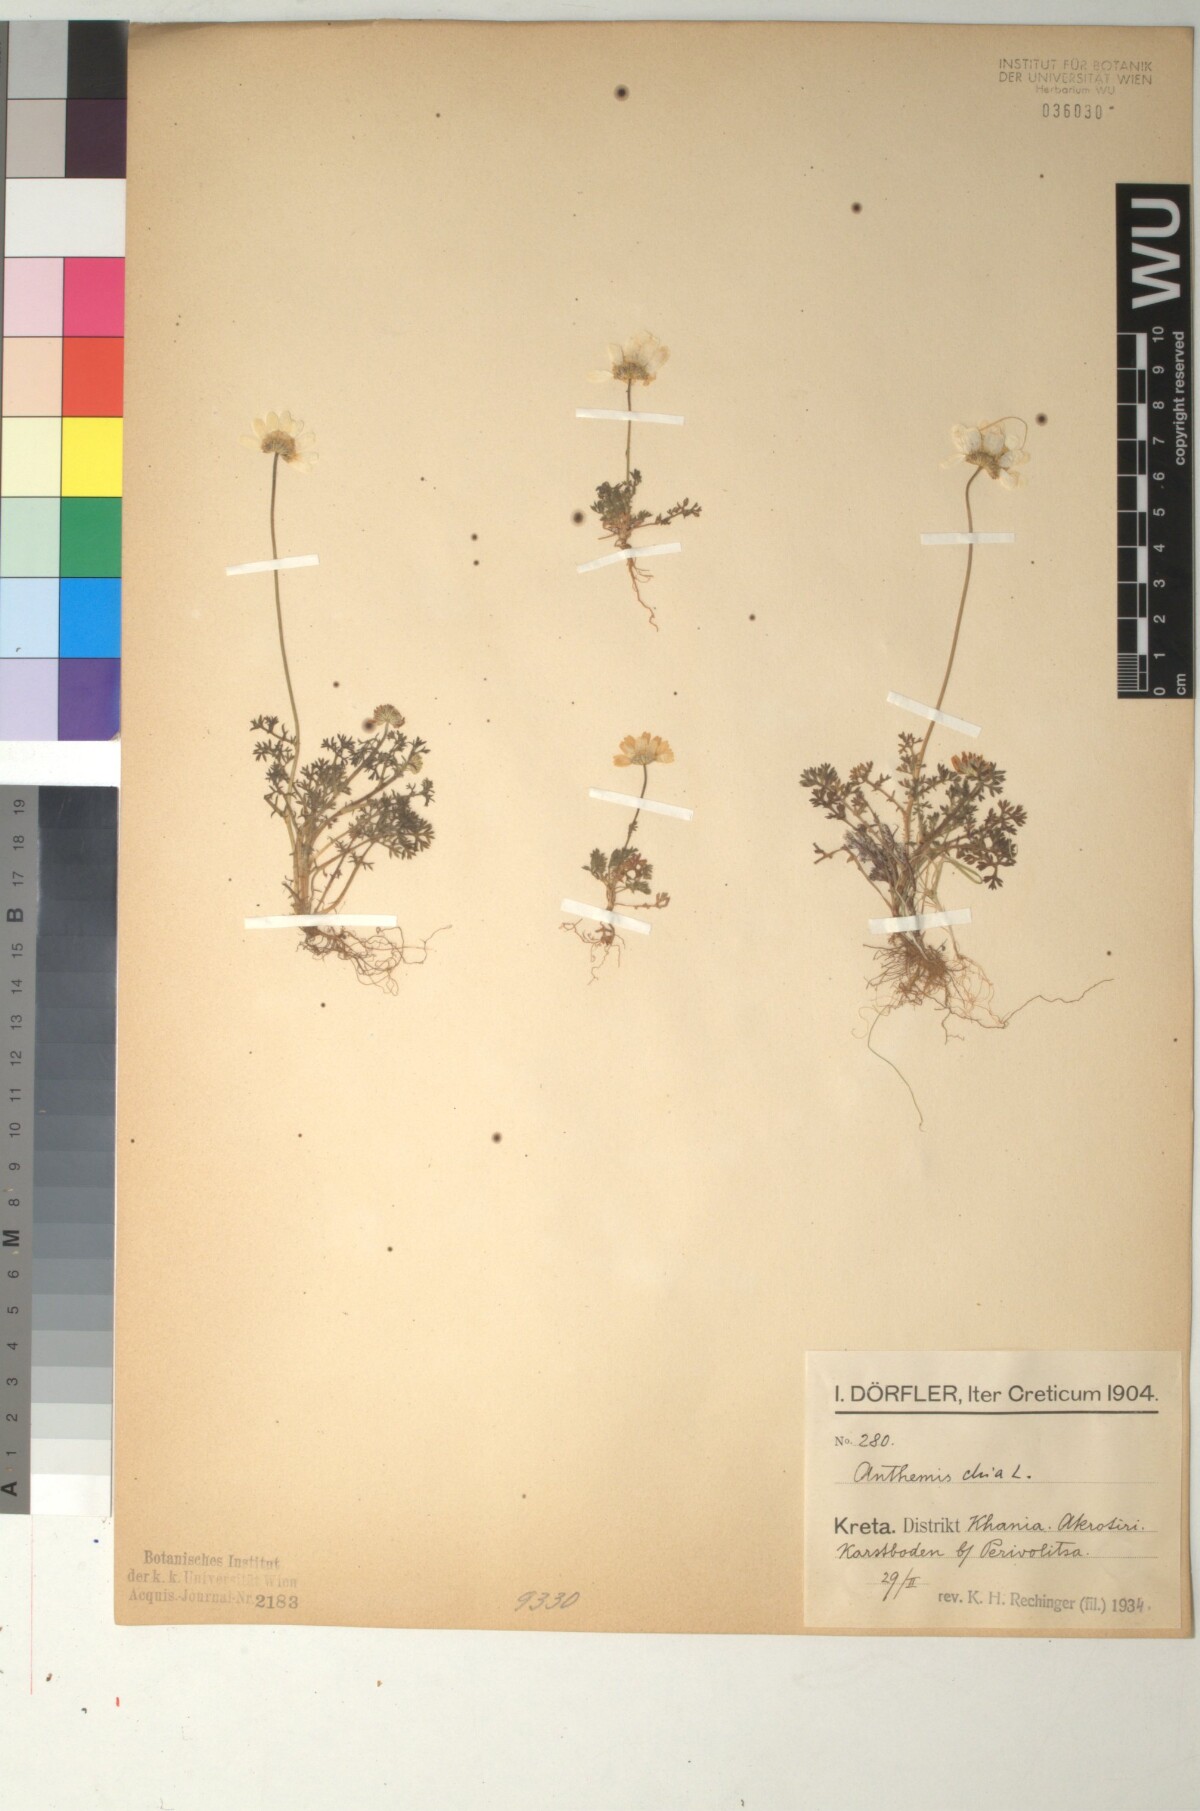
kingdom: Plantae
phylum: Tracheophyta
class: Magnoliopsida
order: Asterales
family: Asteraceae
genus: Anthemis
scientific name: Anthemis chia
